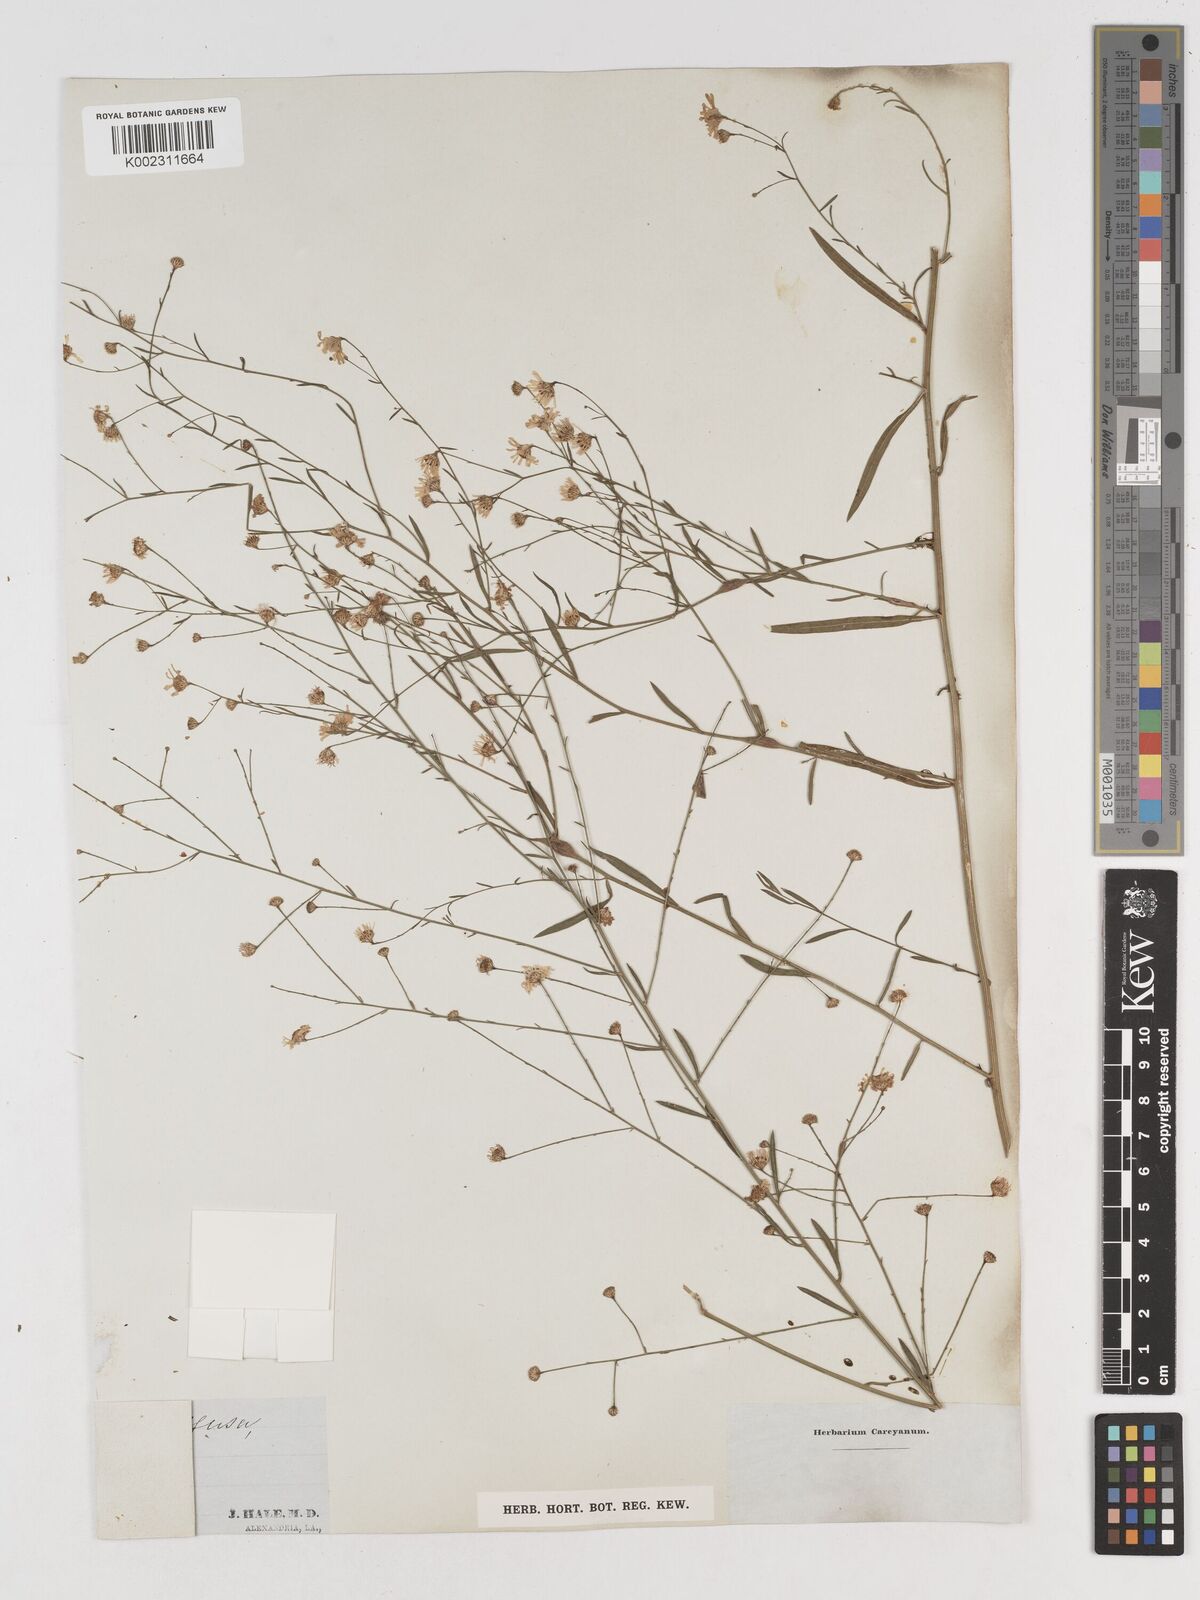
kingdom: Plantae
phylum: Tracheophyta
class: Magnoliopsida
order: Asterales
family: Asteraceae
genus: Boltonia
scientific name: Boltonia diffusa
